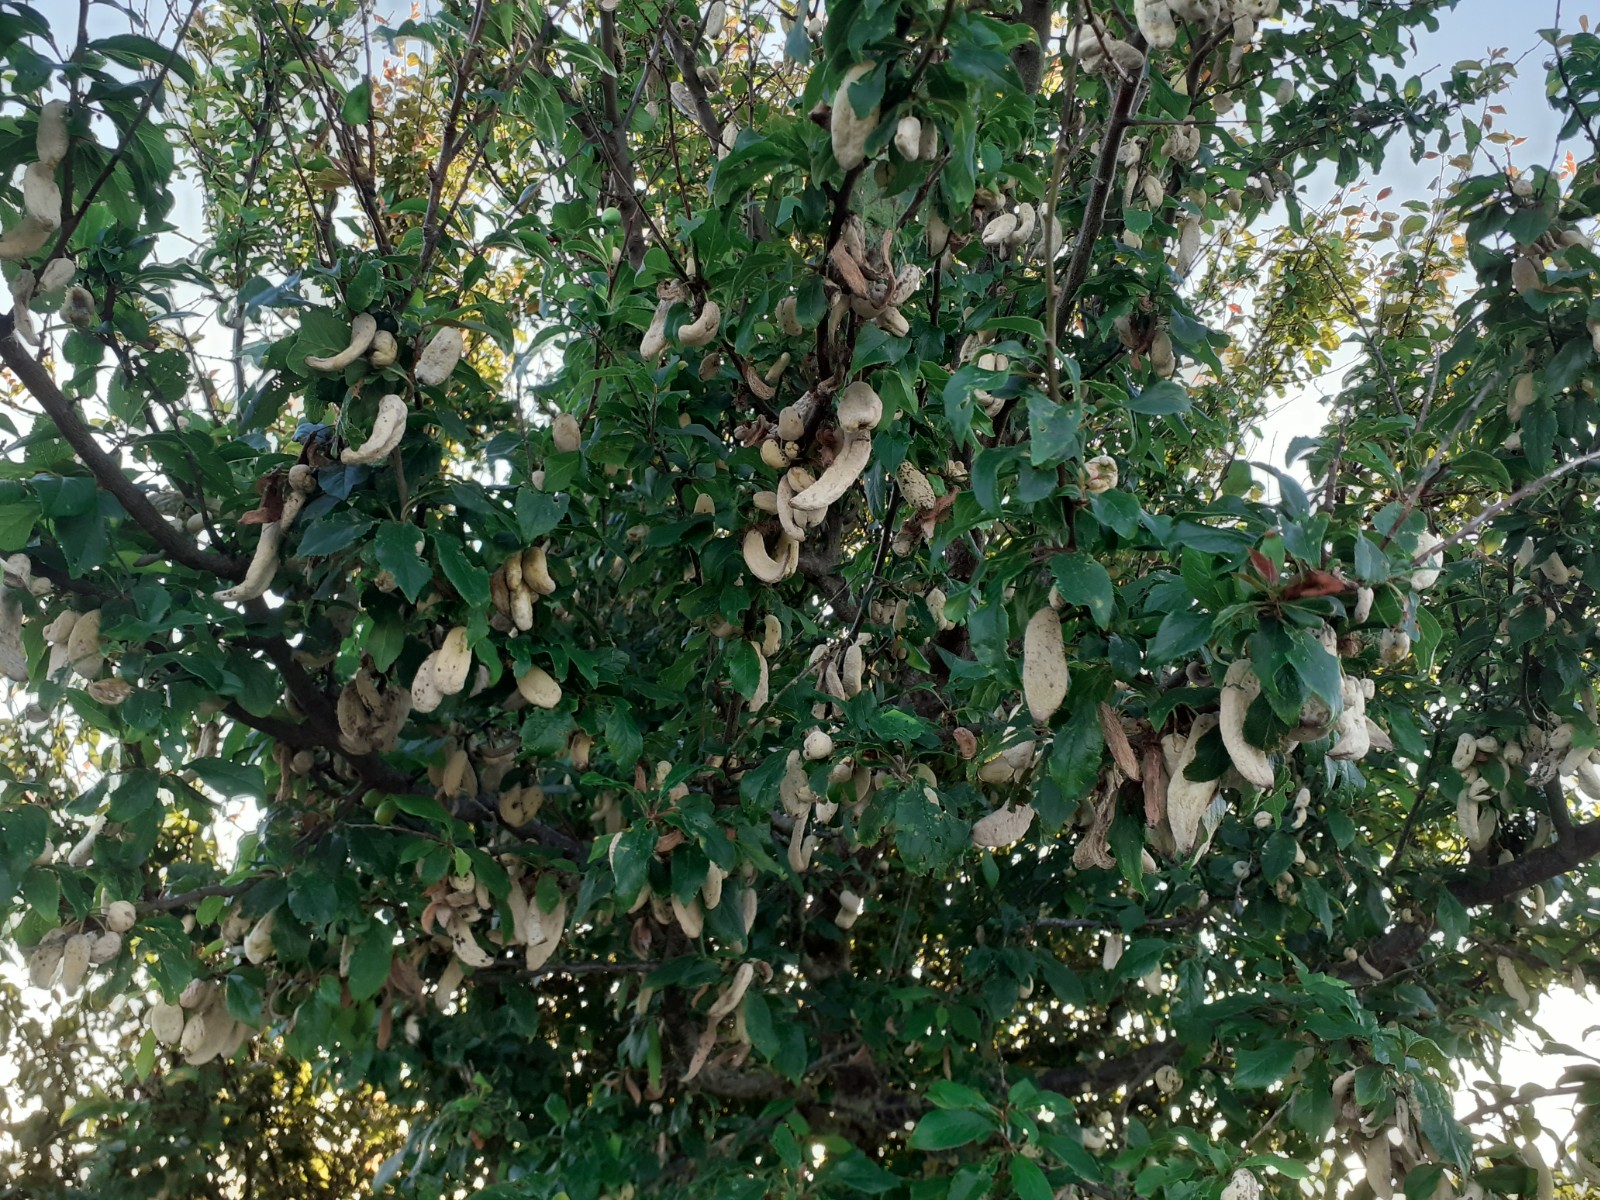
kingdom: Fungi
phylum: Ascomycota
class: Taphrinomycetes
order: Taphrinales
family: Taphrinaceae
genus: Taphrina
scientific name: Taphrina pruni
